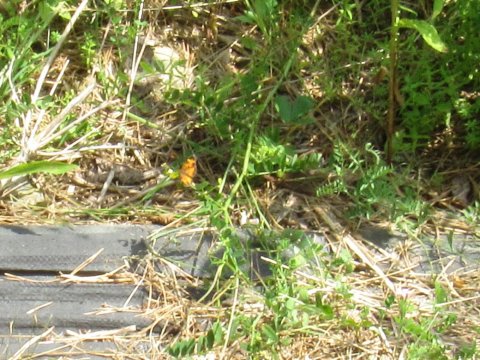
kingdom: Animalia
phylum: Arthropoda
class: Insecta
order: Lepidoptera
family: Nymphalidae
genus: Phyciodes
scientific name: Phyciodes
